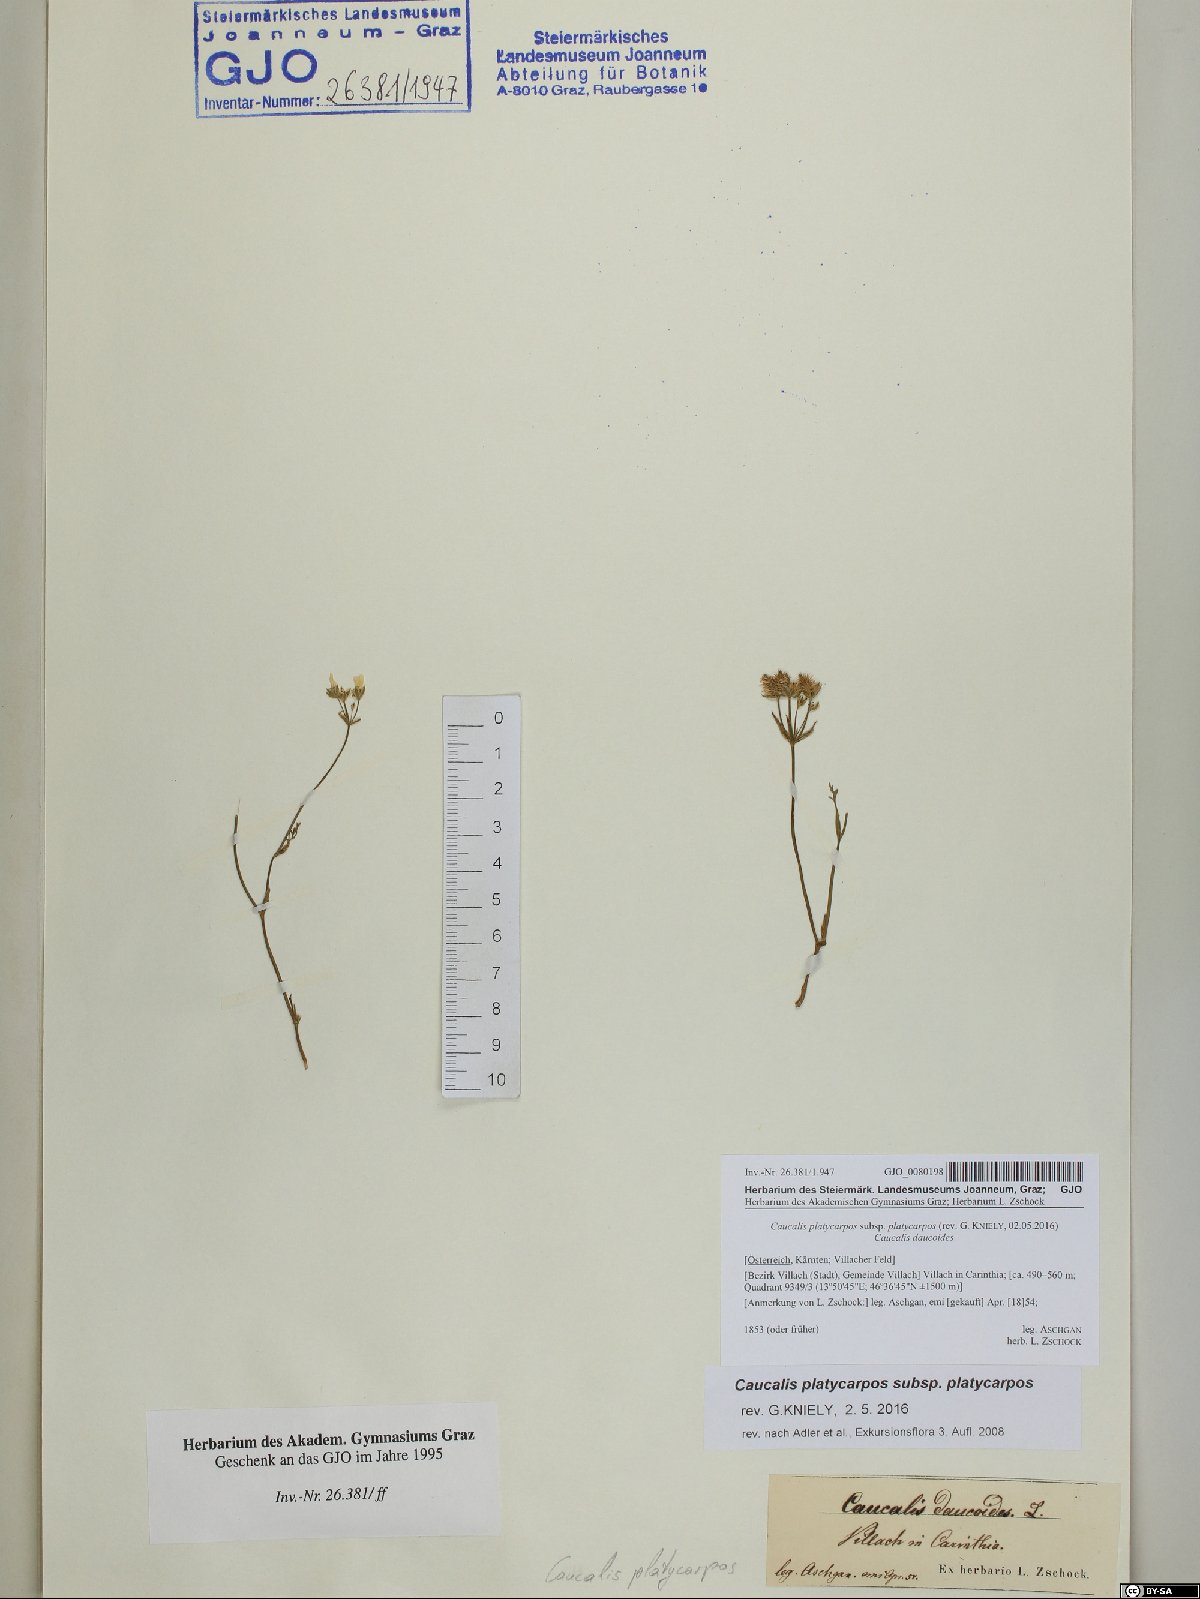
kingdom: Plantae
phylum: Tracheophyta
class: Magnoliopsida
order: Apiales
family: Apiaceae
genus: Caucalis
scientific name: Caucalis platycarpos
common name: Small bur-parsley
